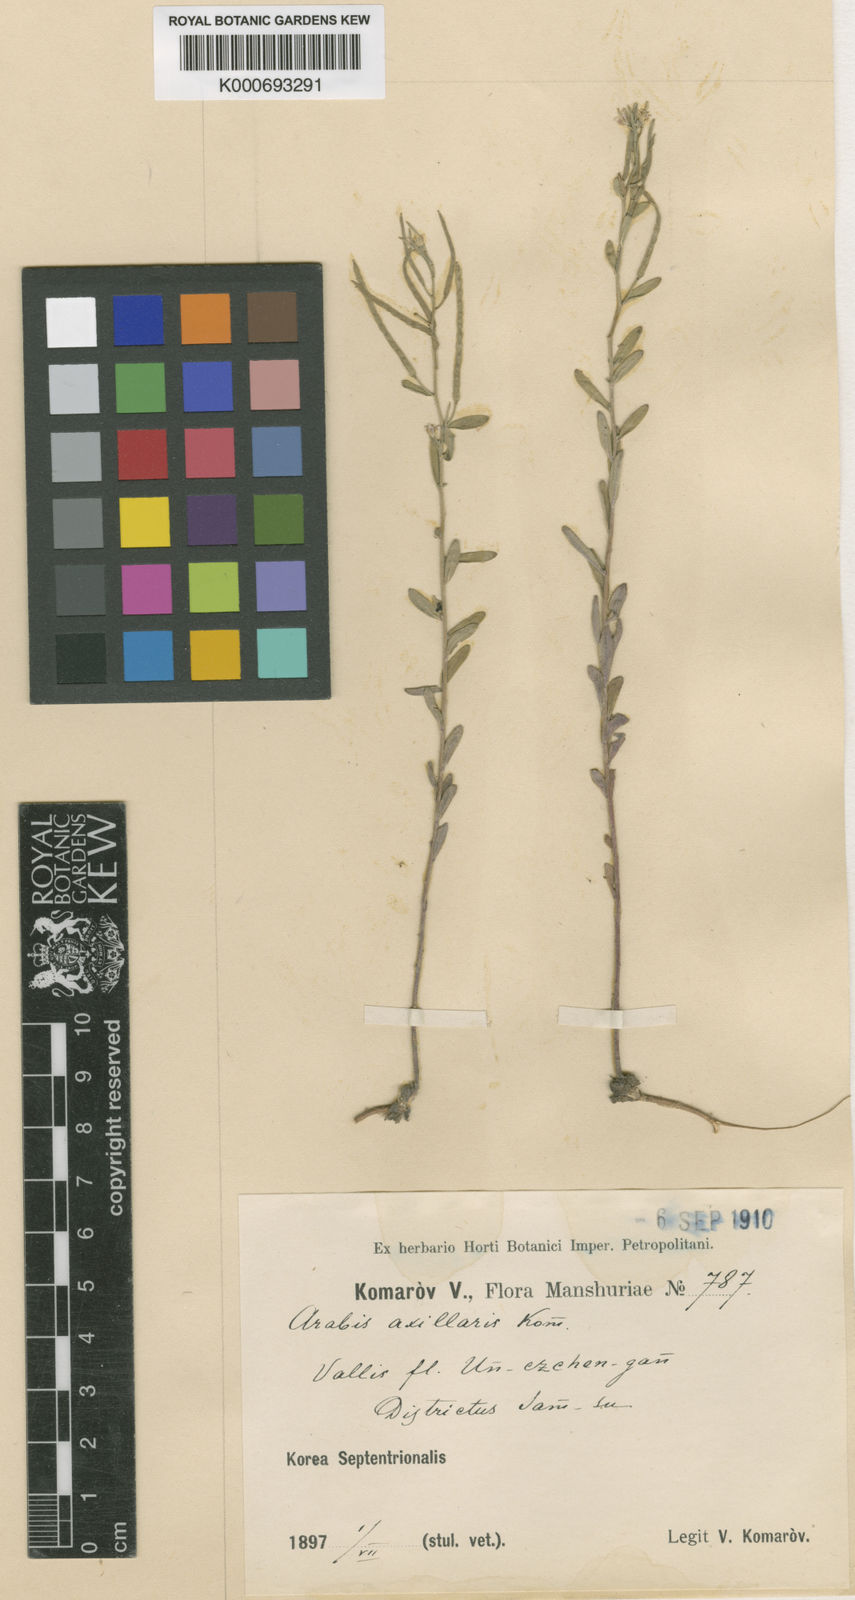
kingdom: Plantae
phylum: Tracheophyta
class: Magnoliopsida
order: Brassicales
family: Brassicaceae
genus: Arabis
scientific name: Arabis axillaris
